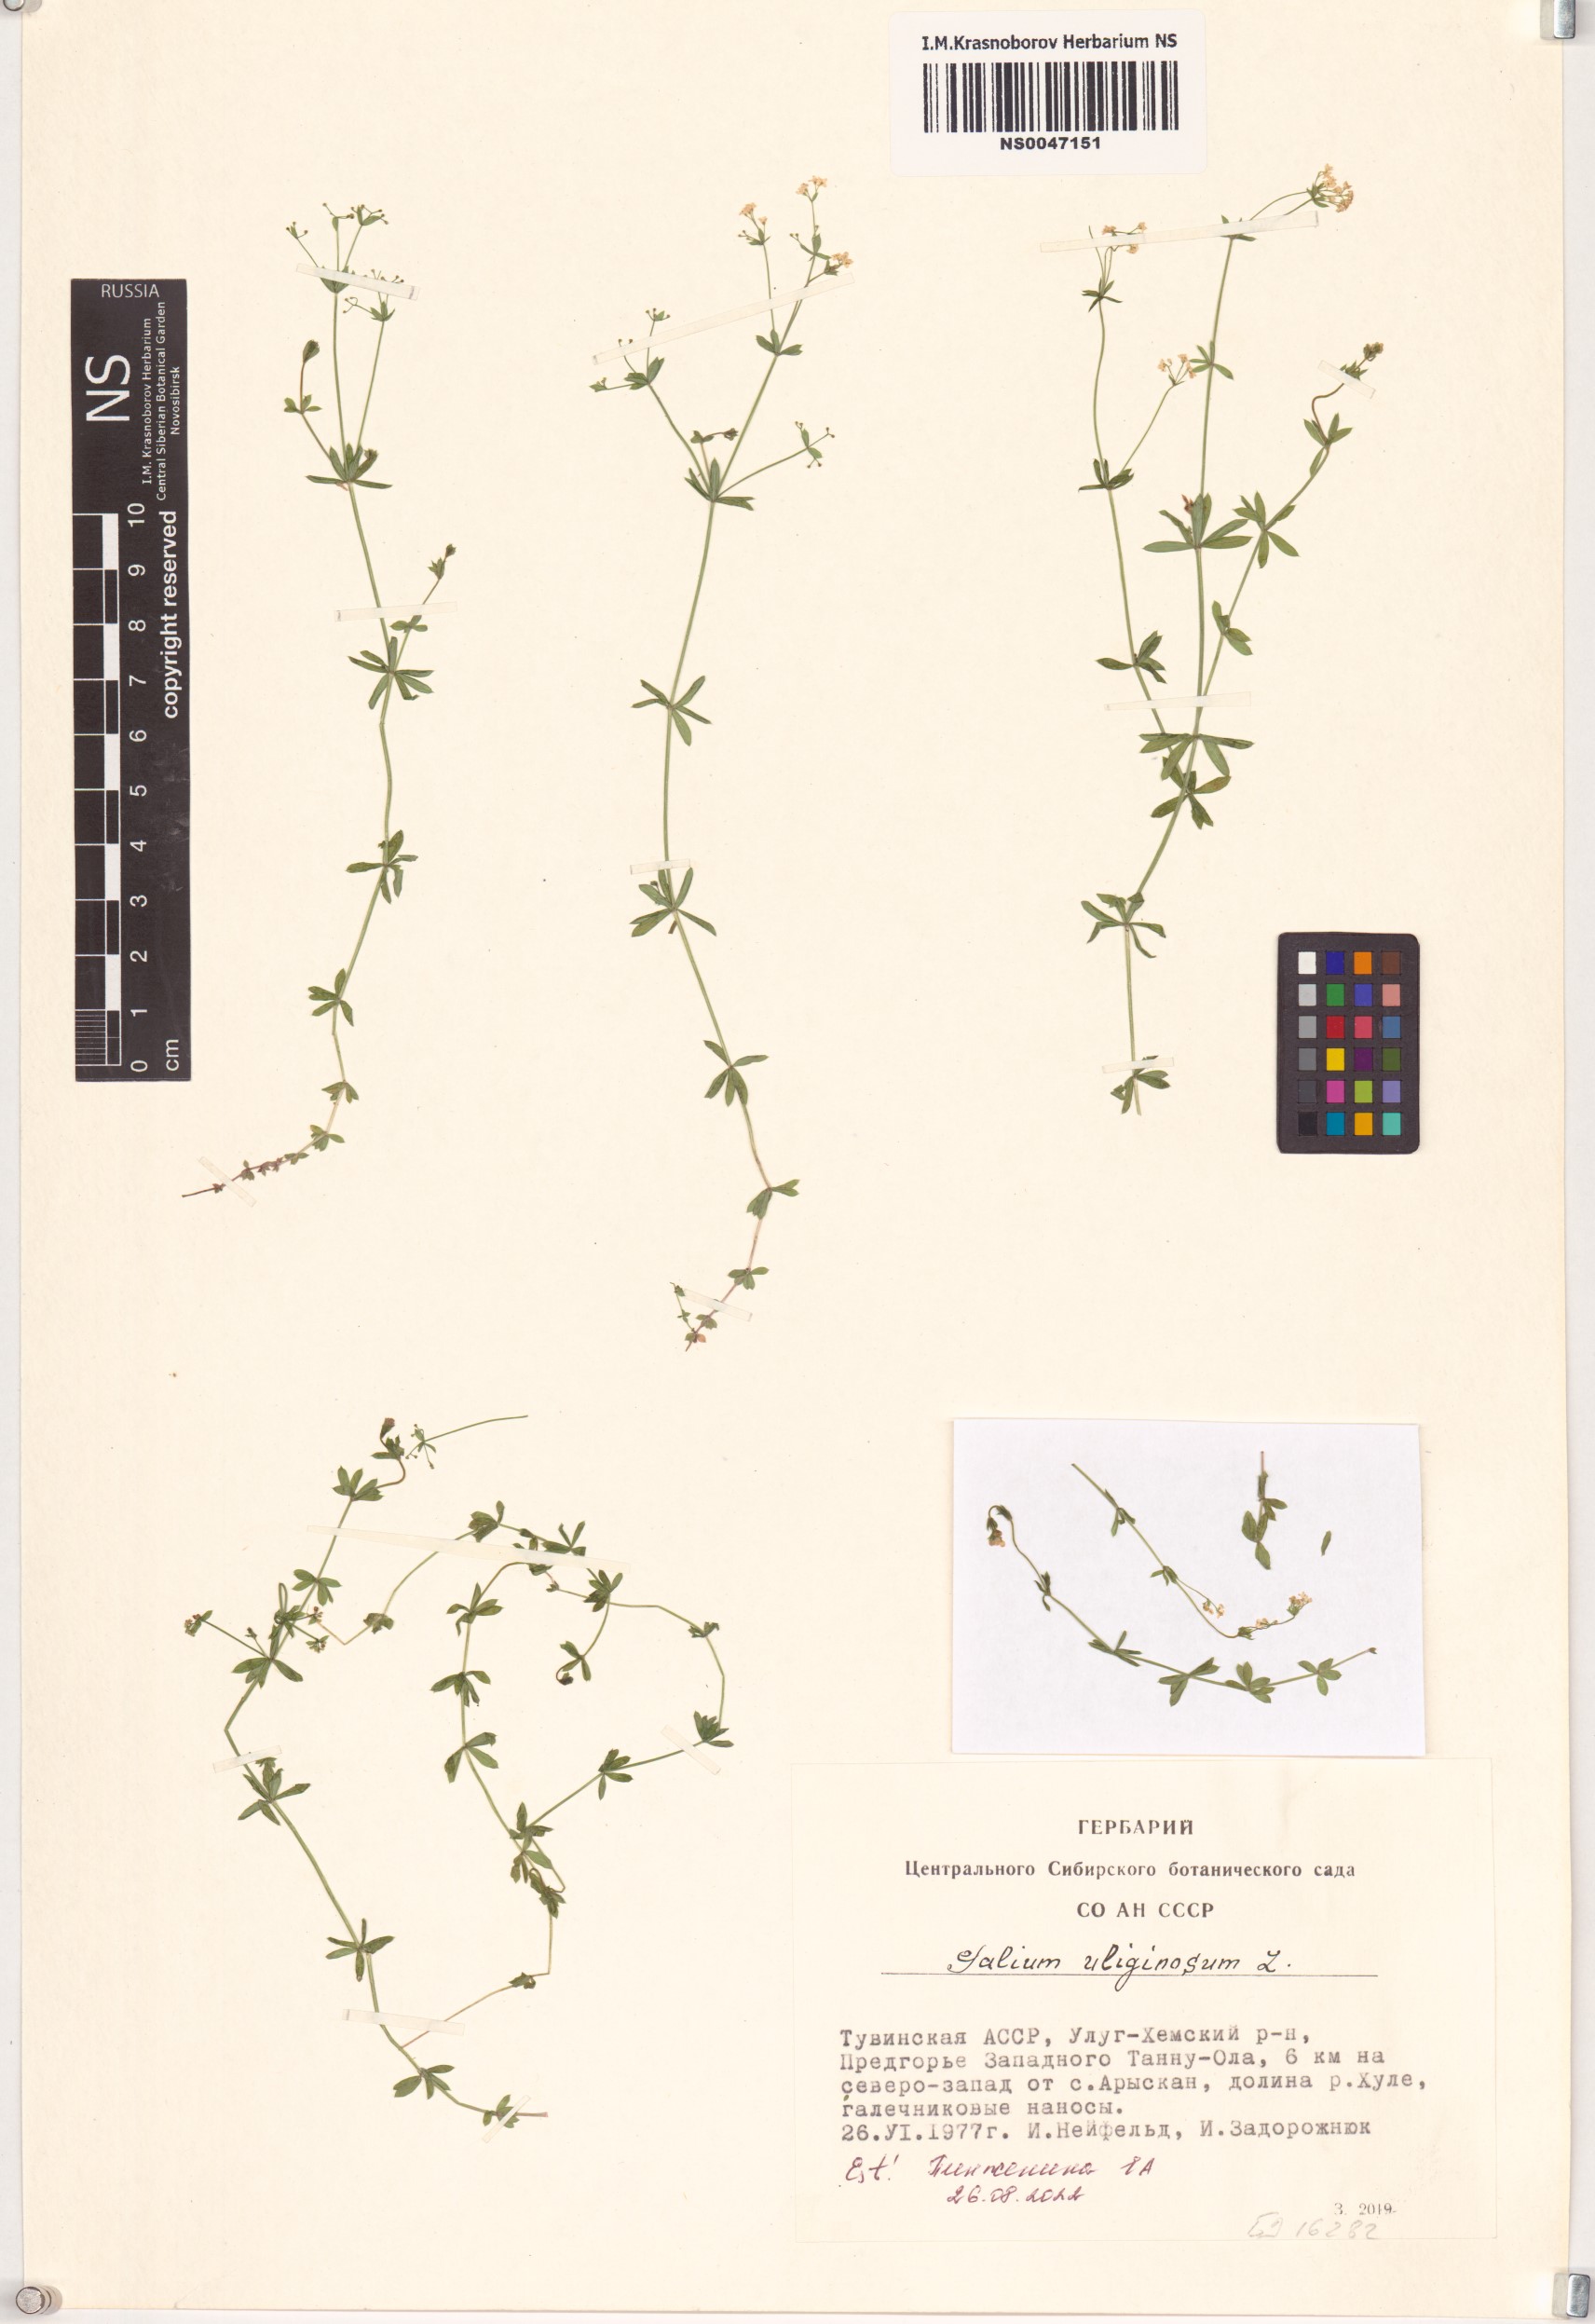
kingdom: Plantae
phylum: Tracheophyta
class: Magnoliopsida
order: Gentianales
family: Rubiaceae
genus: Galium
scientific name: Galium uliginosum
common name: Fen bedstraw
